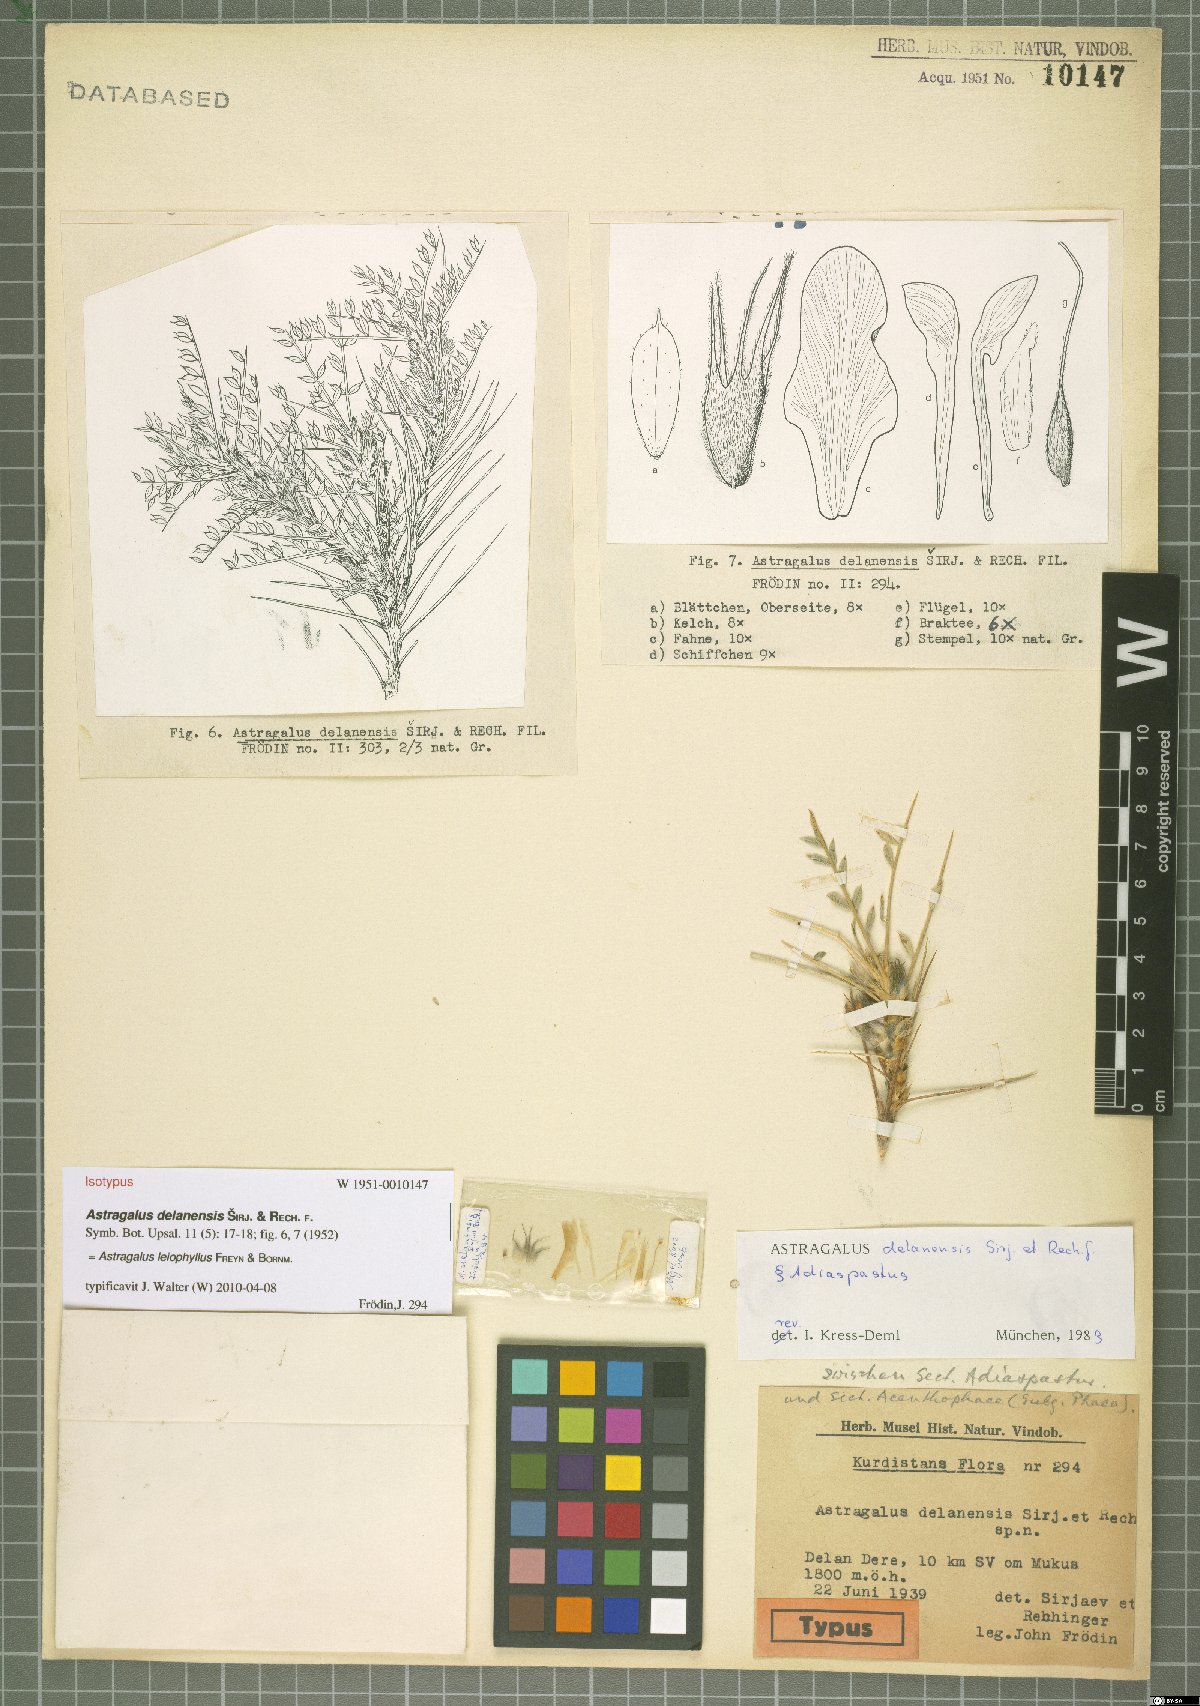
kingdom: Plantae
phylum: Tracheophyta
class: Magnoliopsida
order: Fabales
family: Fabaceae
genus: Astragalus
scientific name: Astragalus leiophyllus
